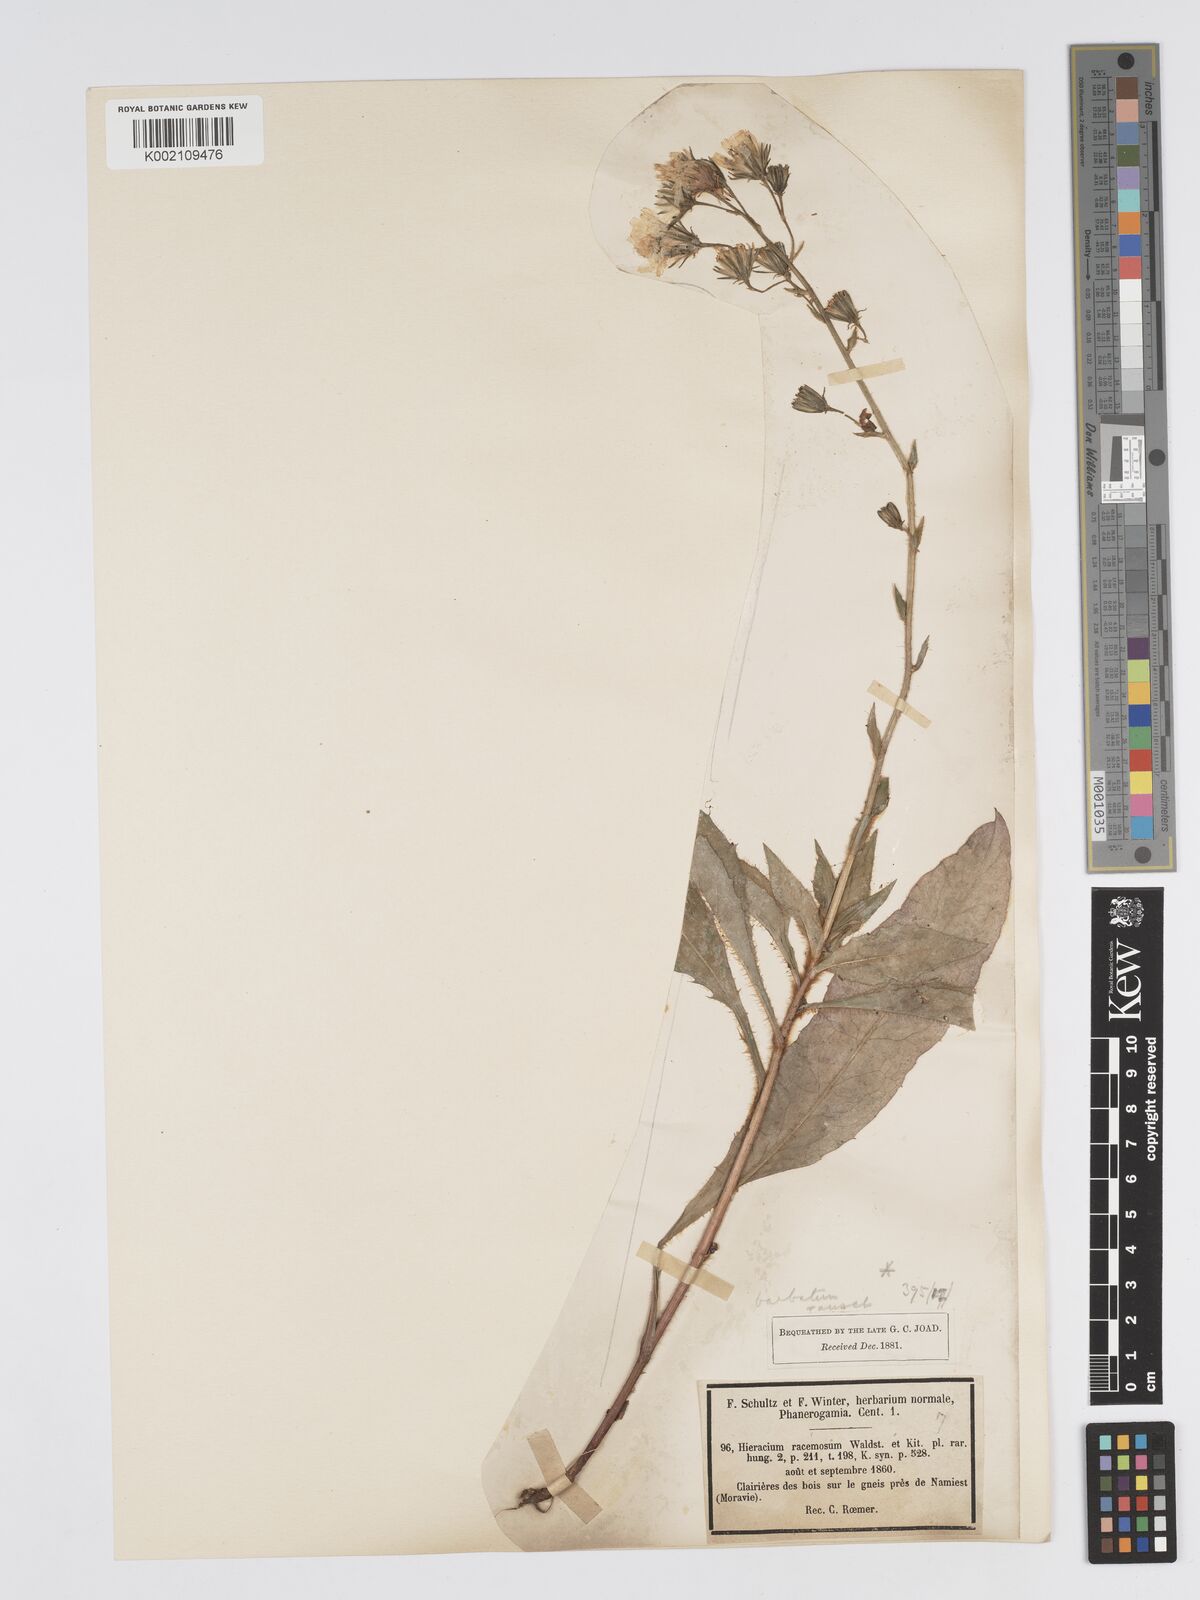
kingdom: Plantae
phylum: Tracheophyta
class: Magnoliopsida
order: Asterales
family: Asteraceae
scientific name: Asteraceae
